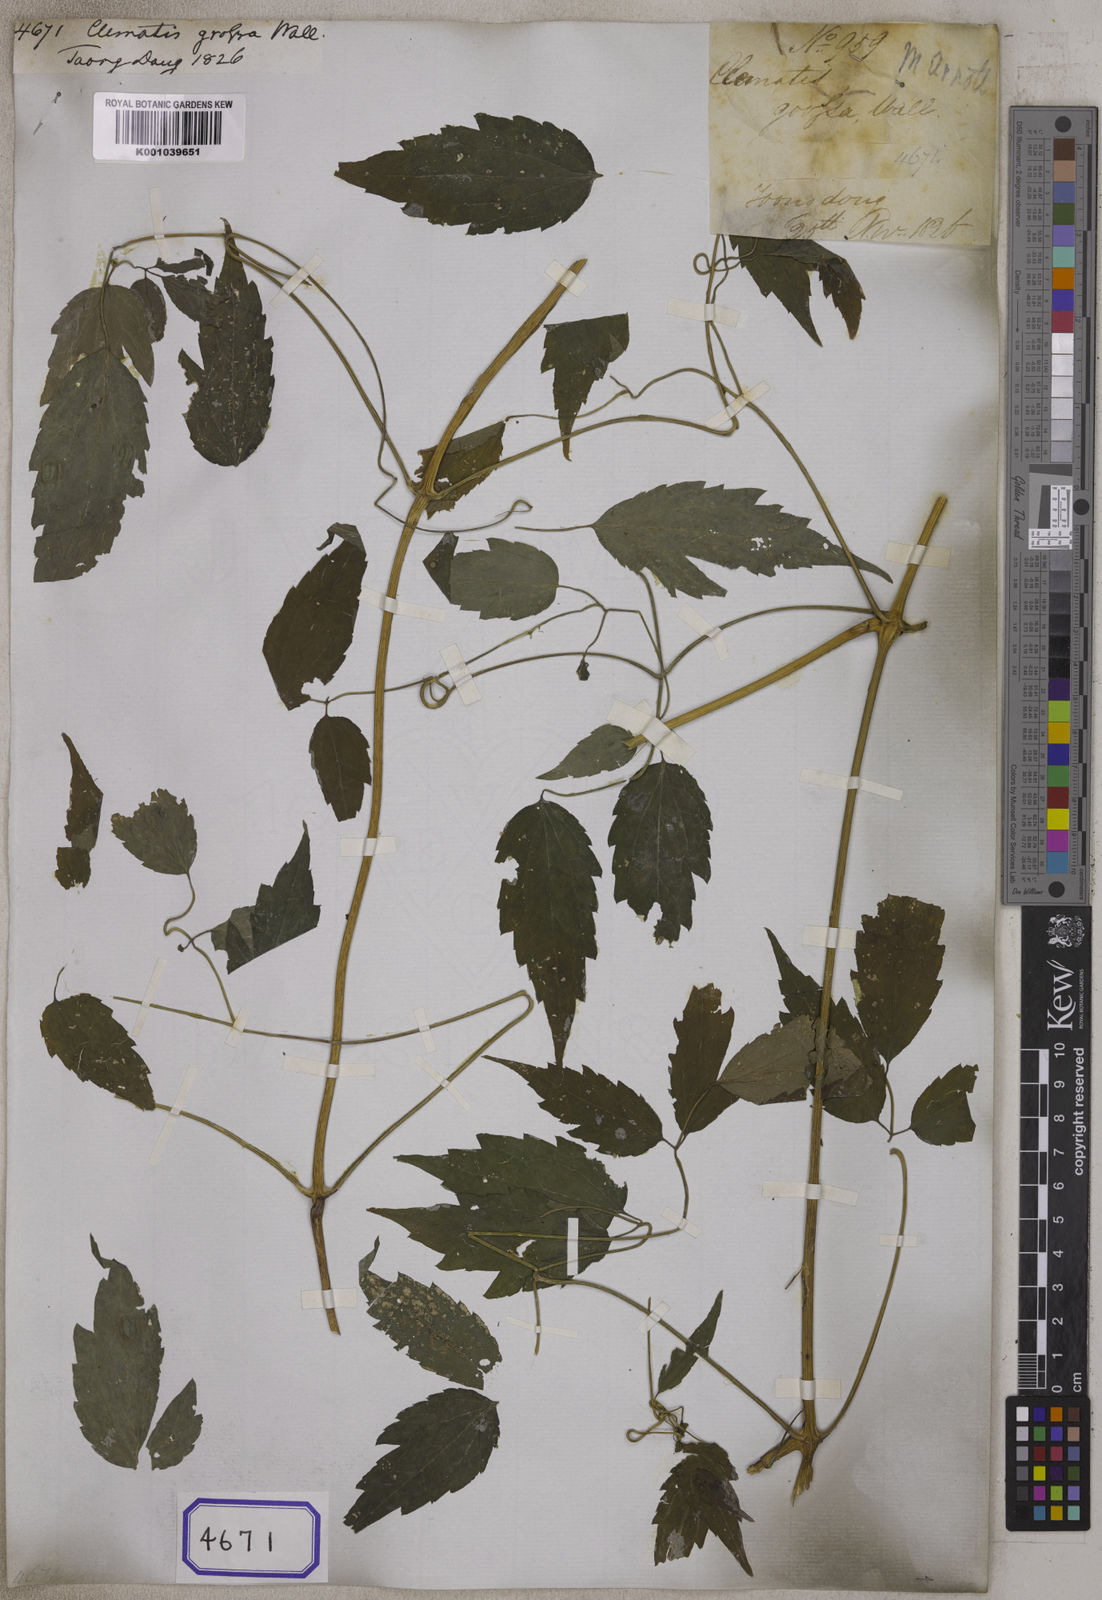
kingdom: Plantae
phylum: Tracheophyta
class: Magnoliopsida
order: Ranunculales
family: Ranunculaceae
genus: Clematis
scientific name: Clematis
